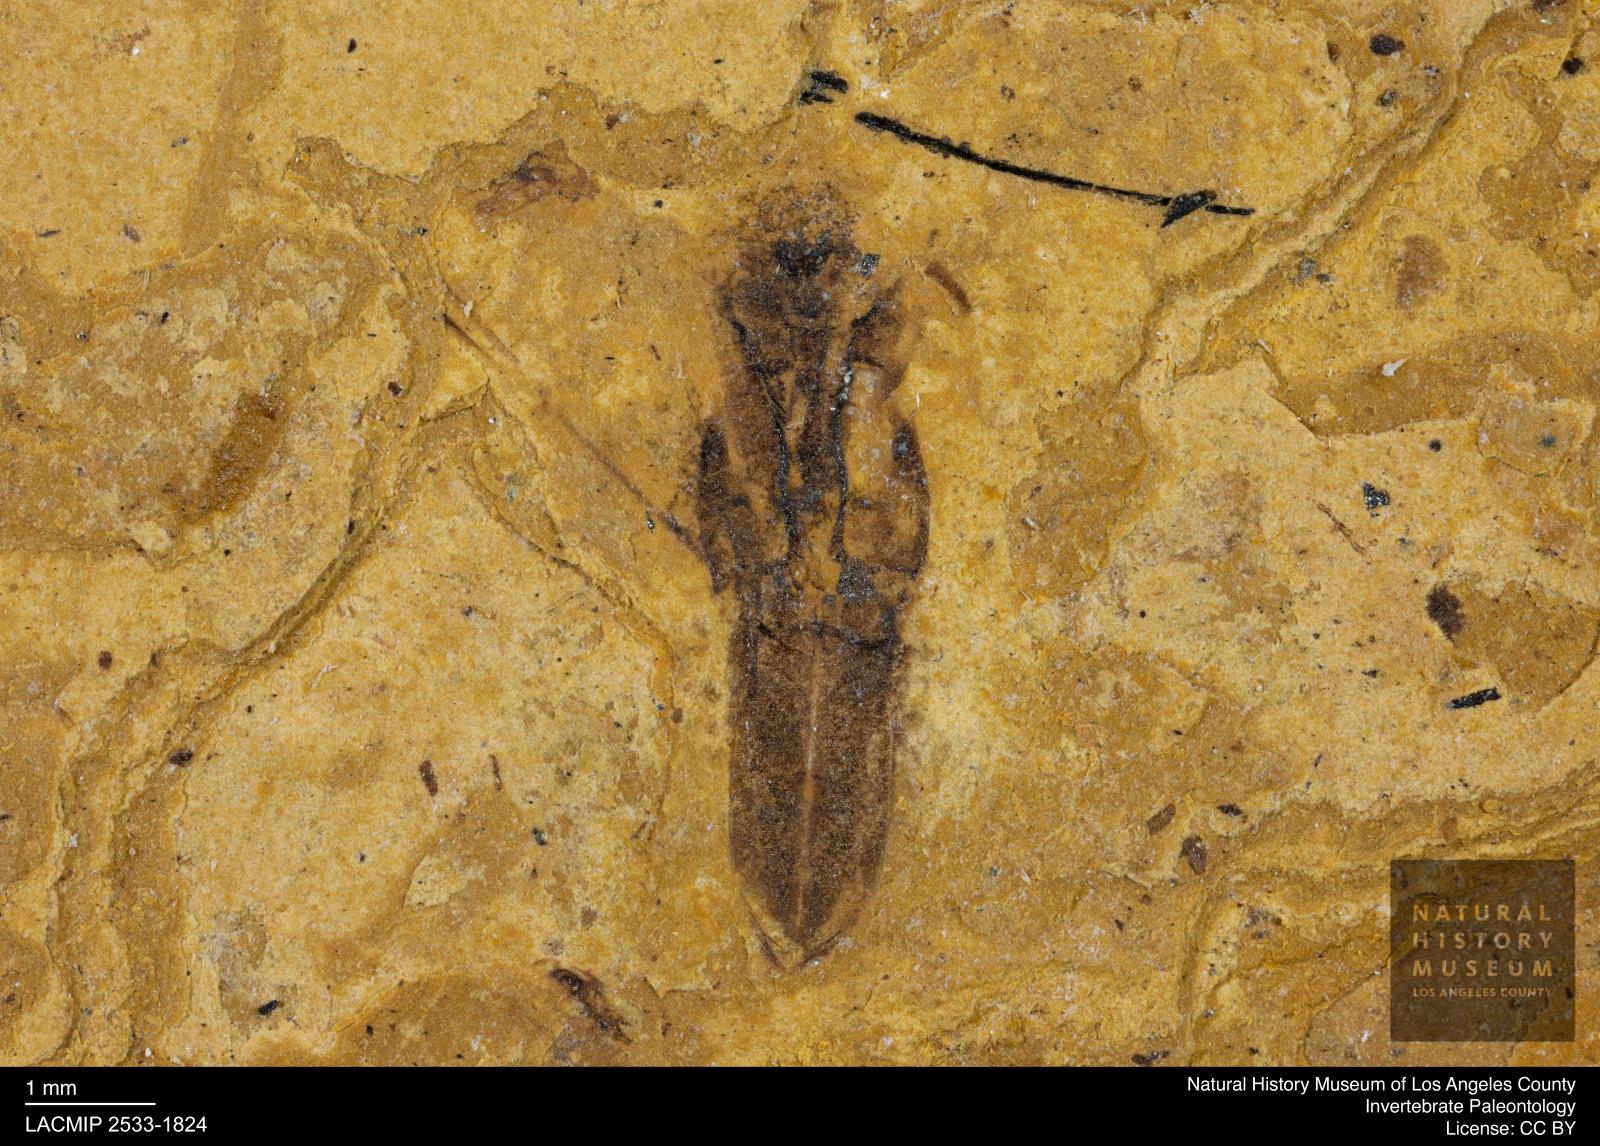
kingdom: Animalia
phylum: Arthropoda
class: Insecta
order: Hemiptera
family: Notonectidae
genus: Notonecta
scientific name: Notonecta
